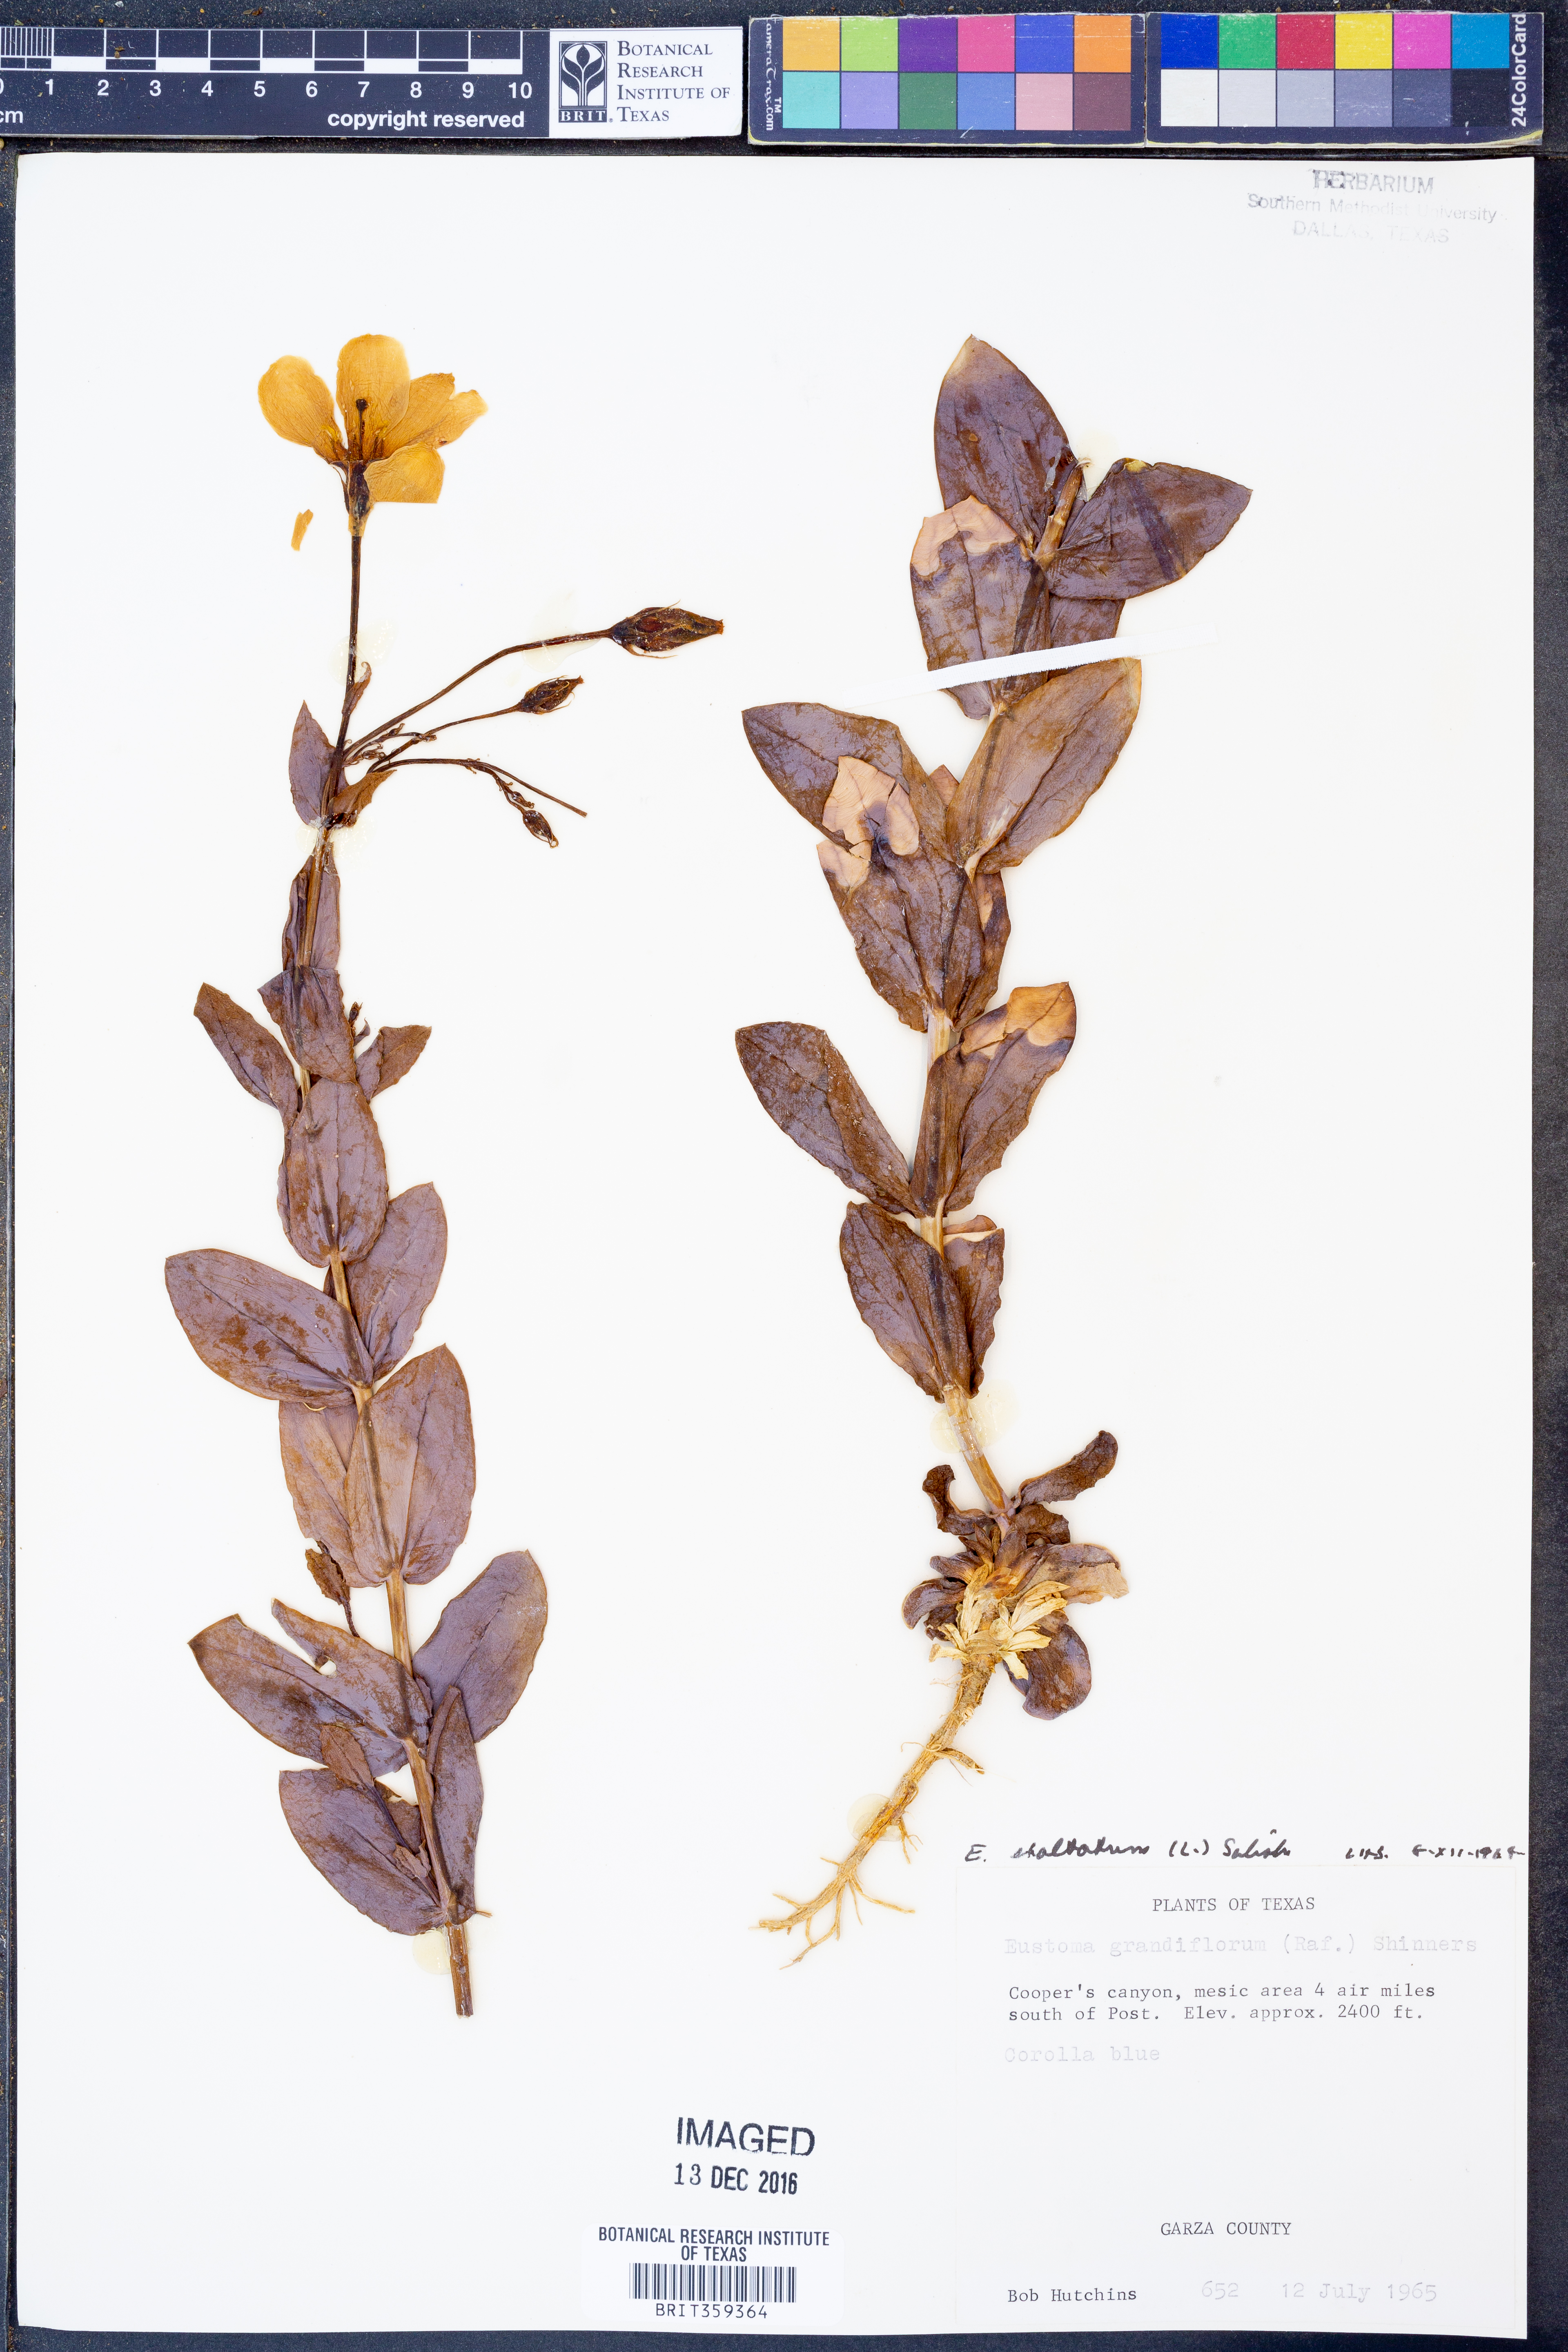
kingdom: Plantae
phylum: Tracheophyta
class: Magnoliopsida
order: Gentianales
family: Gentianaceae
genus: Eustoma
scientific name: Eustoma exaltatum
